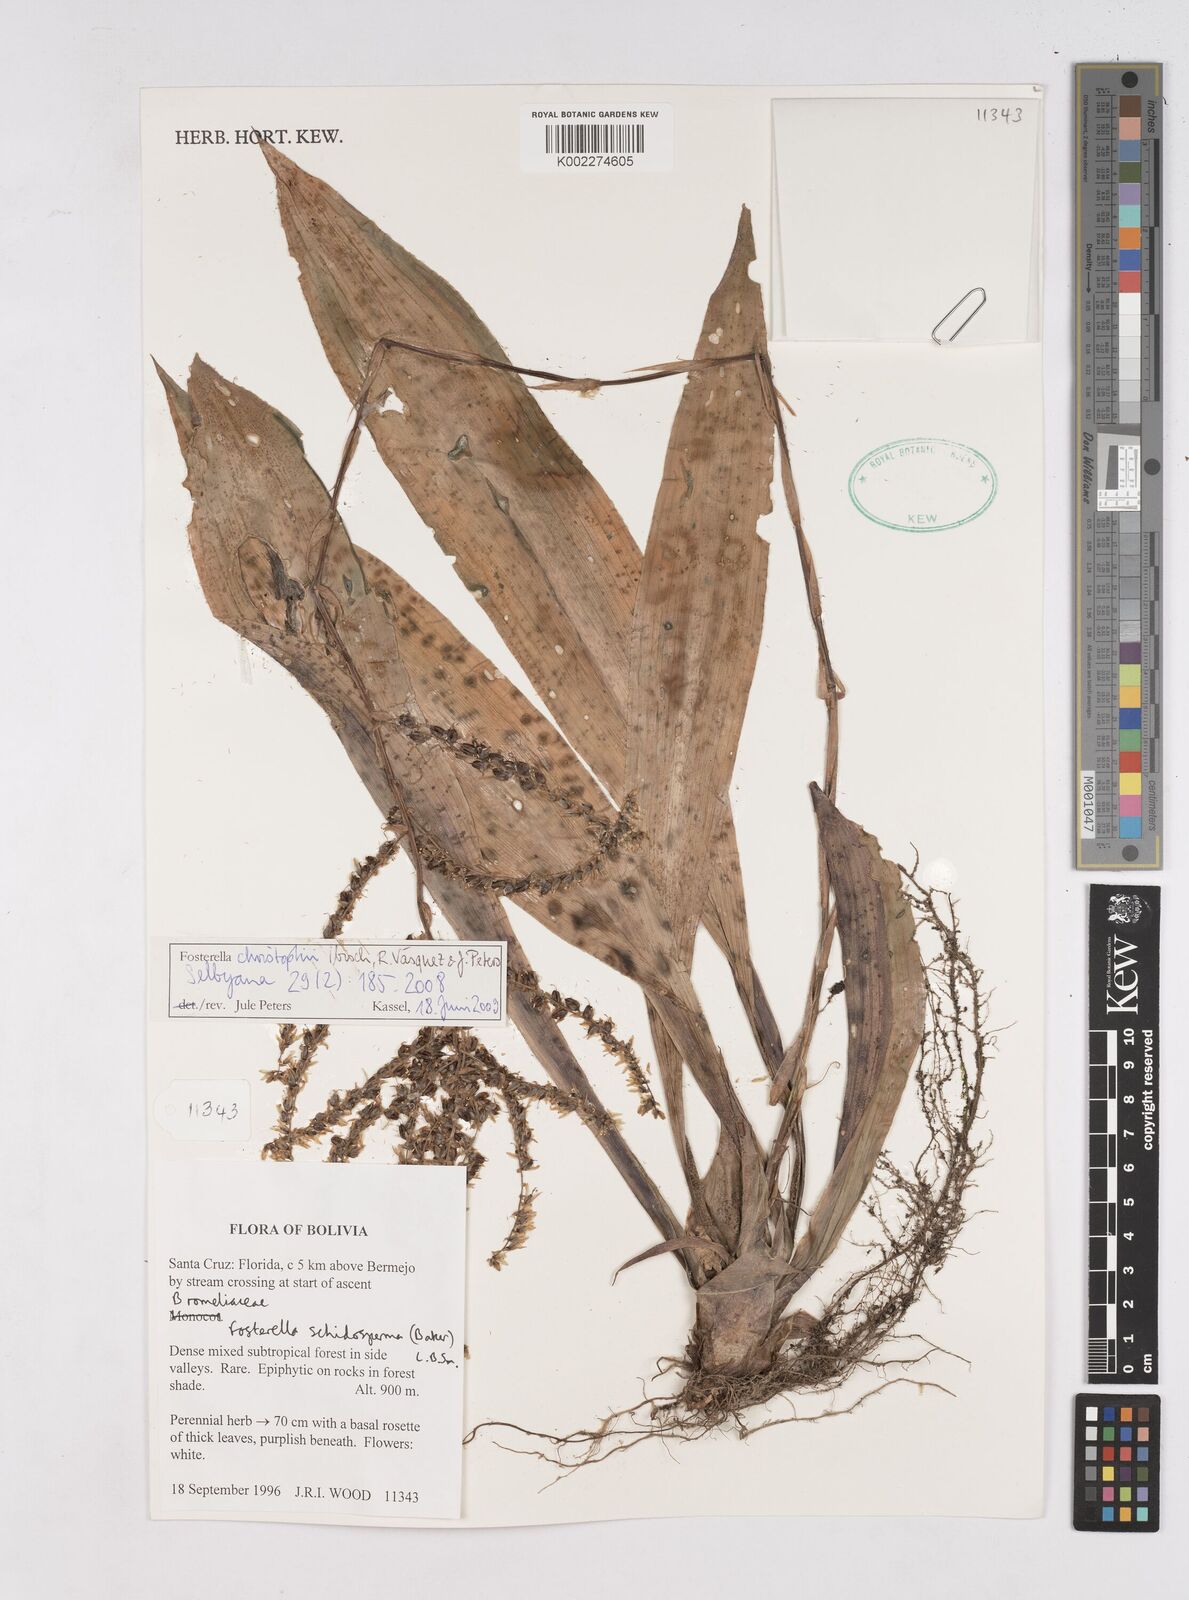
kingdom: Plantae
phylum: Tracheophyta
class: Liliopsida
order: Poales
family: Bromeliaceae
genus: Fosterella
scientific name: Fosterella christophii
